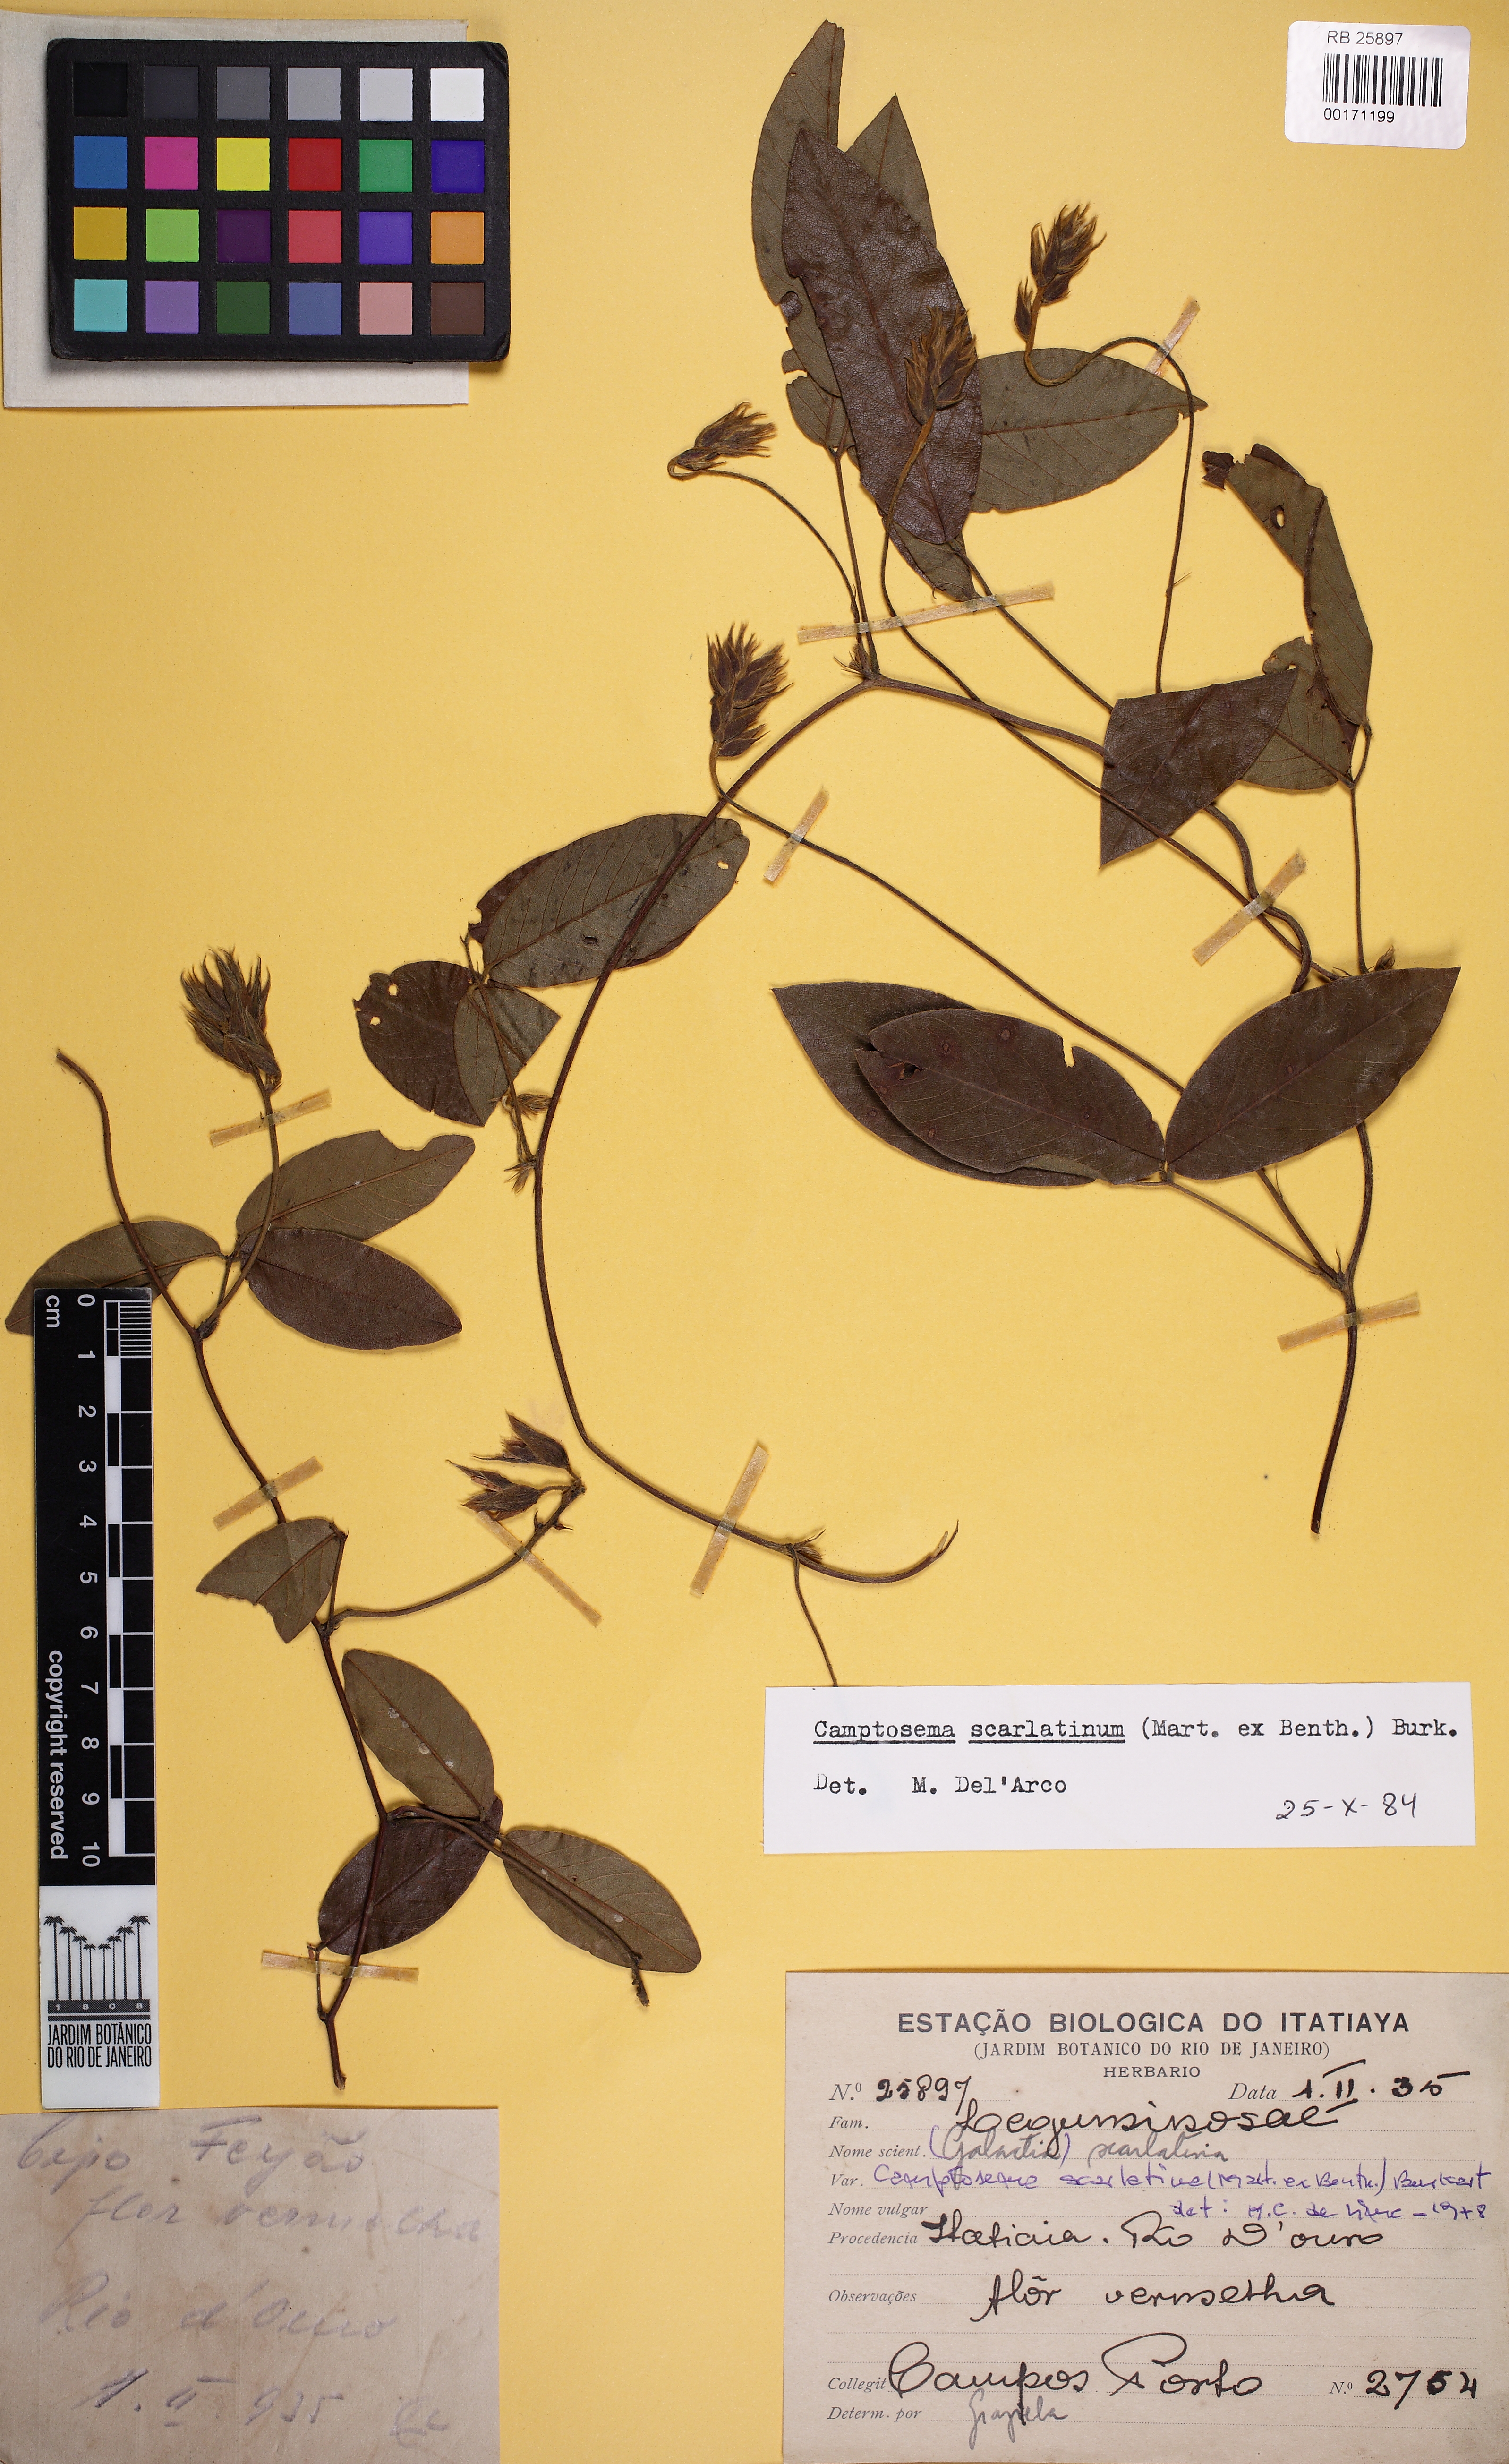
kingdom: Plantae
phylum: Tracheophyta
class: Magnoliopsida
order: Fabales
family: Fabaceae
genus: Betencourtia
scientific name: Betencourtia scarlatina
